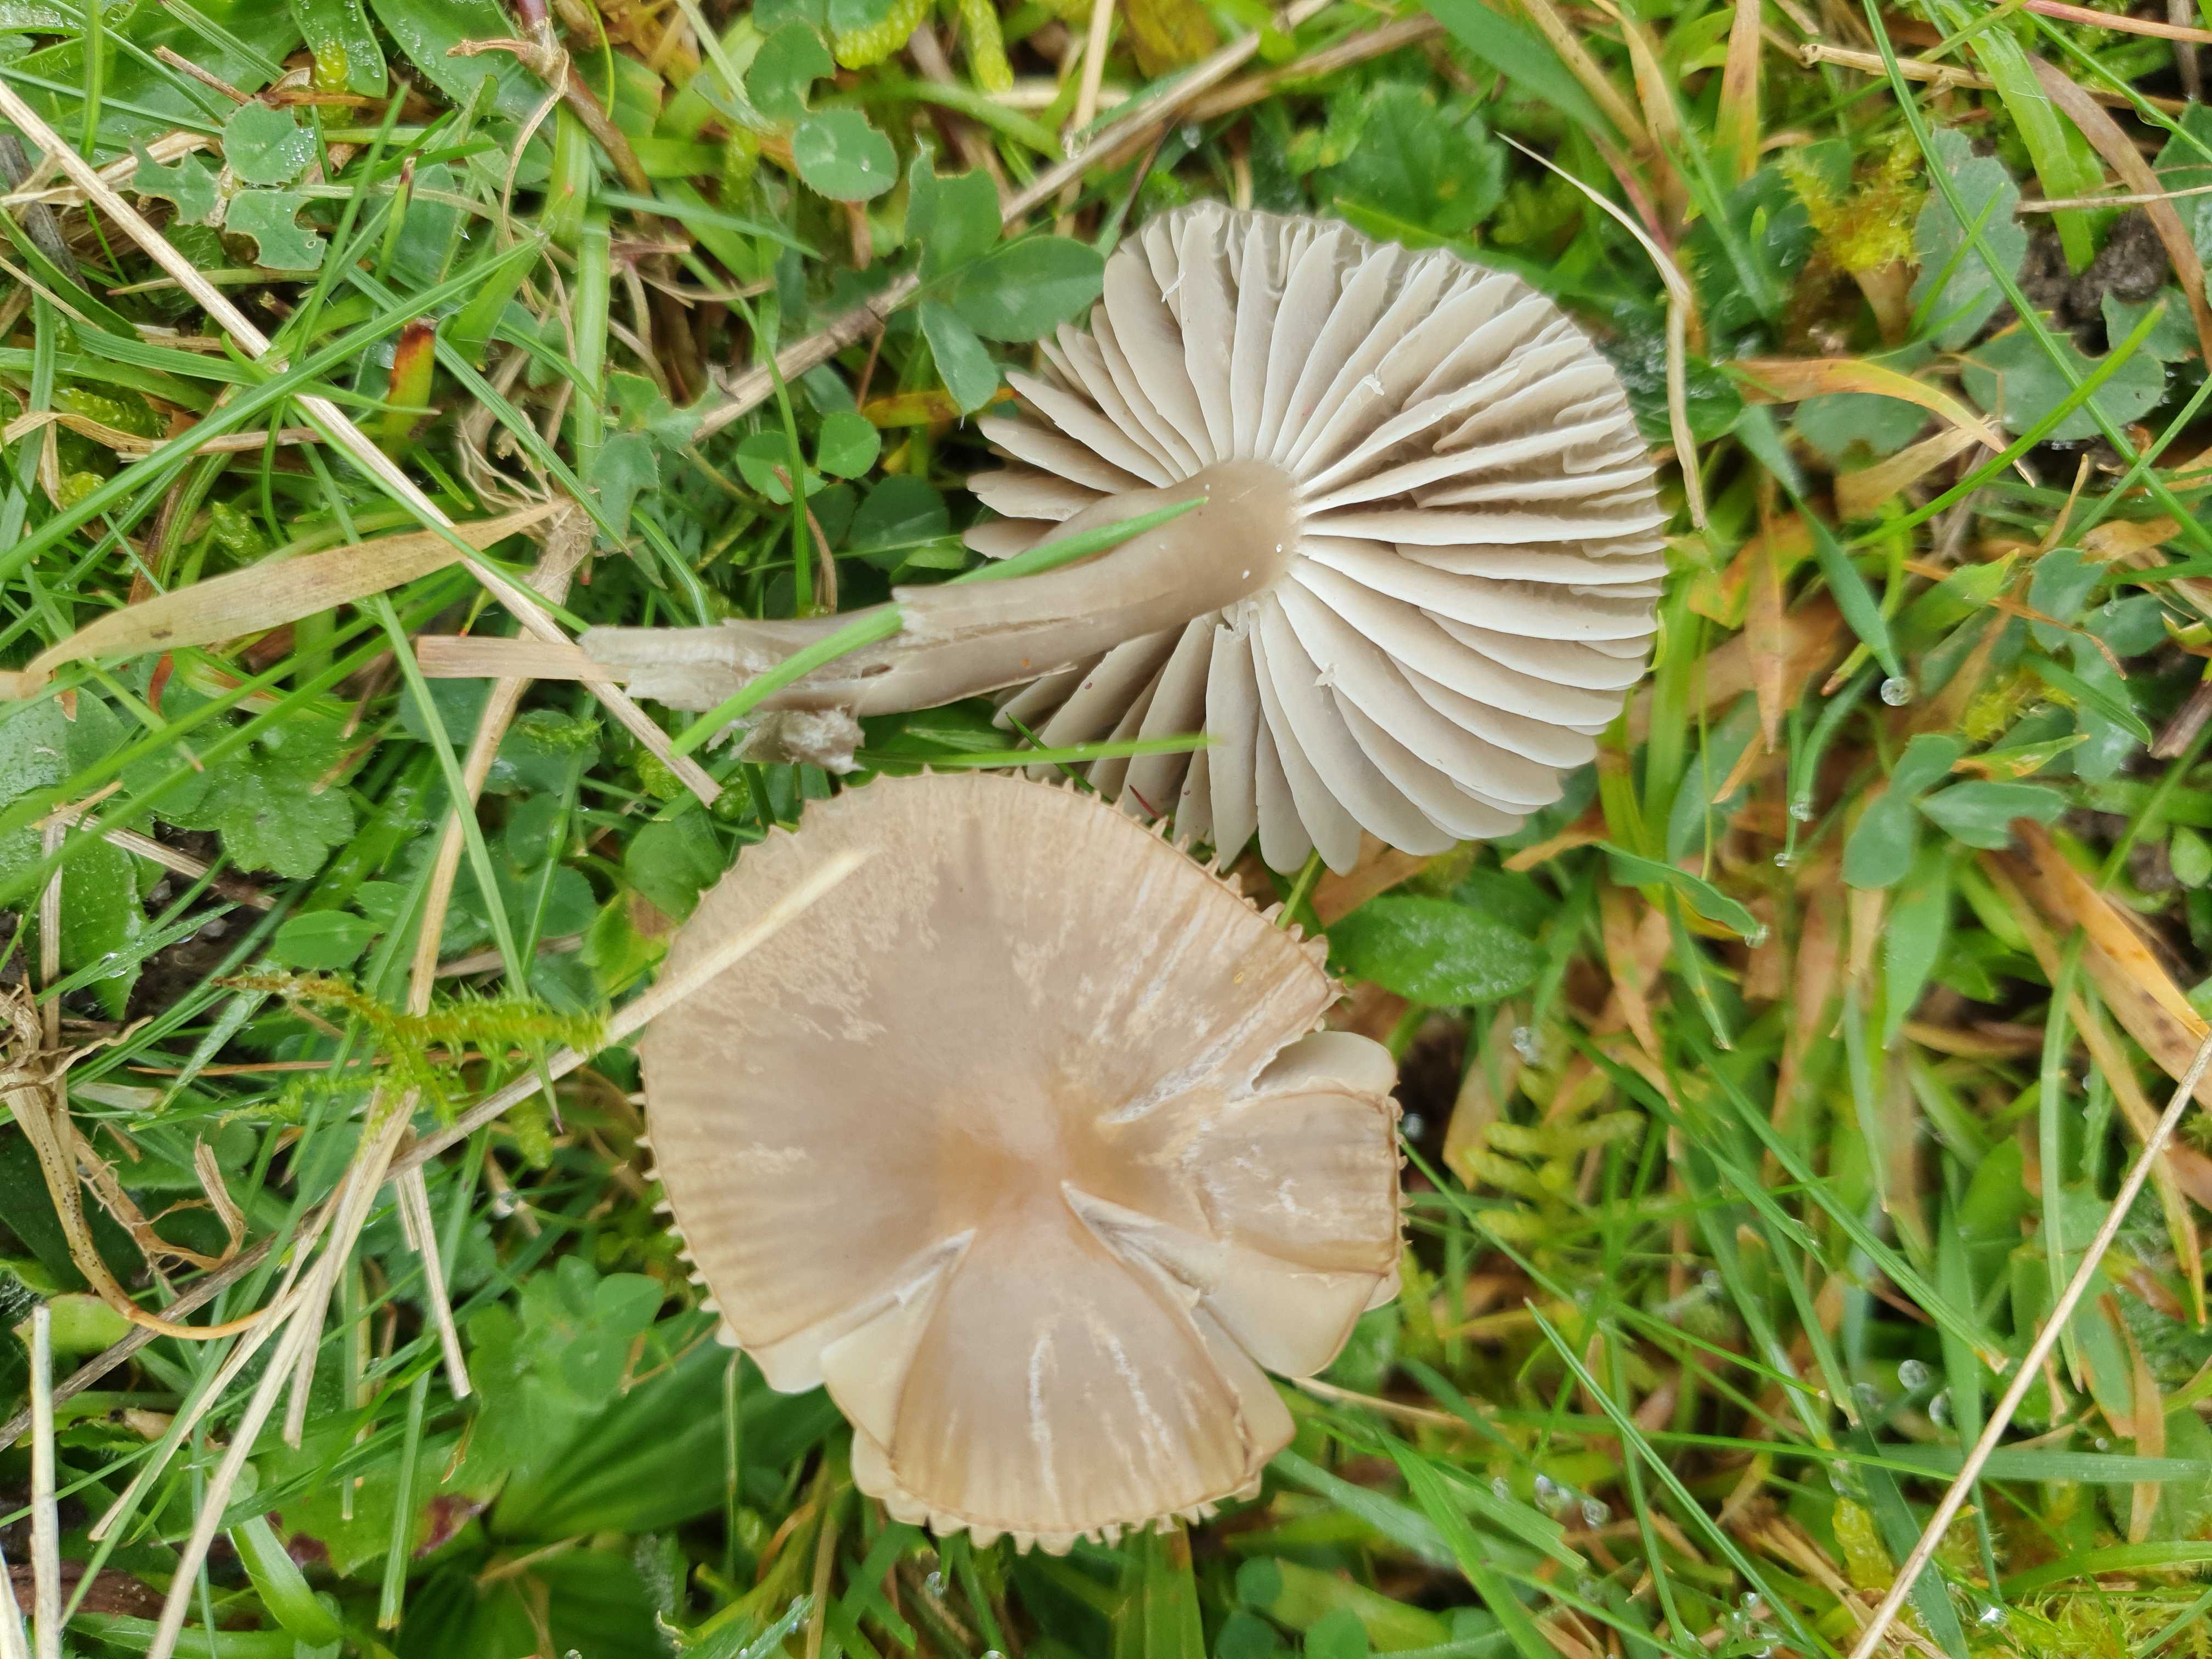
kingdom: Fungi
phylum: Basidiomycota
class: Agaricomycetes
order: Agaricales
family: Hygrophoraceae
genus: Gliophorus
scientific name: Gliophorus irrigatus
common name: slimet vokshat
